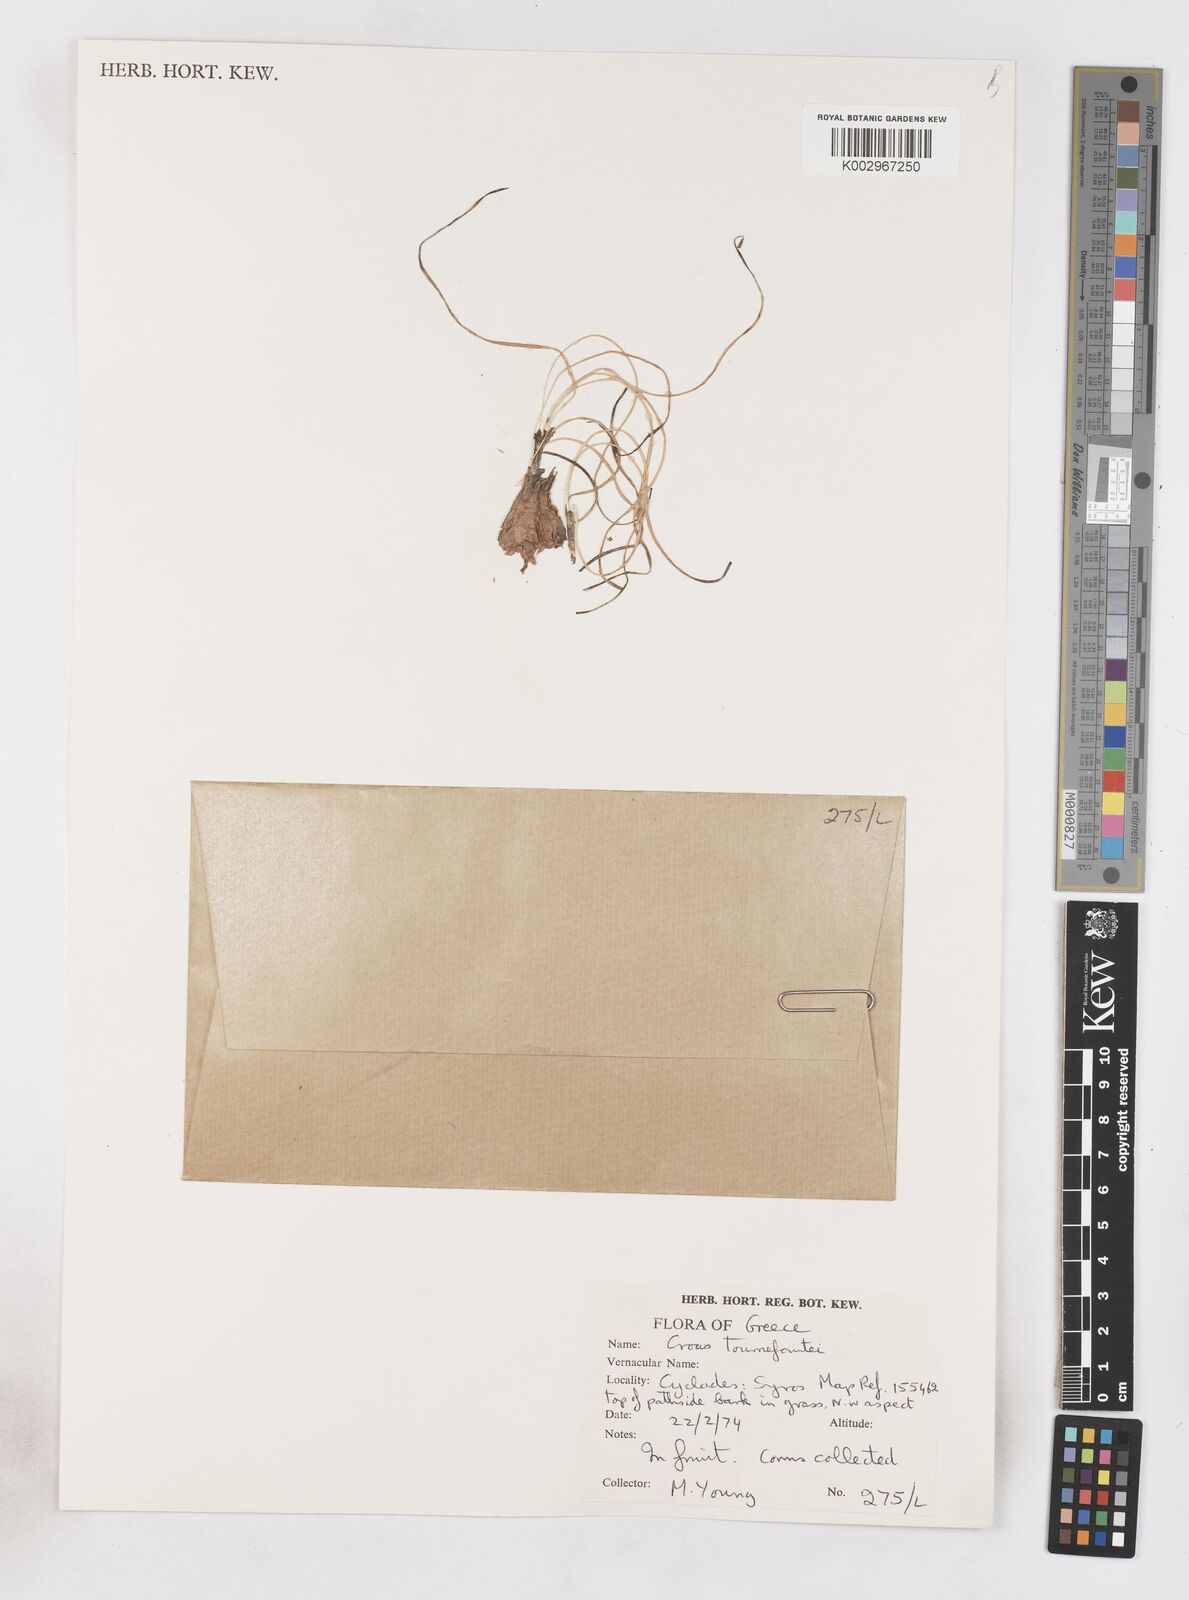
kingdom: Plantae
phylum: Tracheophyta
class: Liliopsida
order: Asparagales
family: Iridaceae
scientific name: Iridaceae
